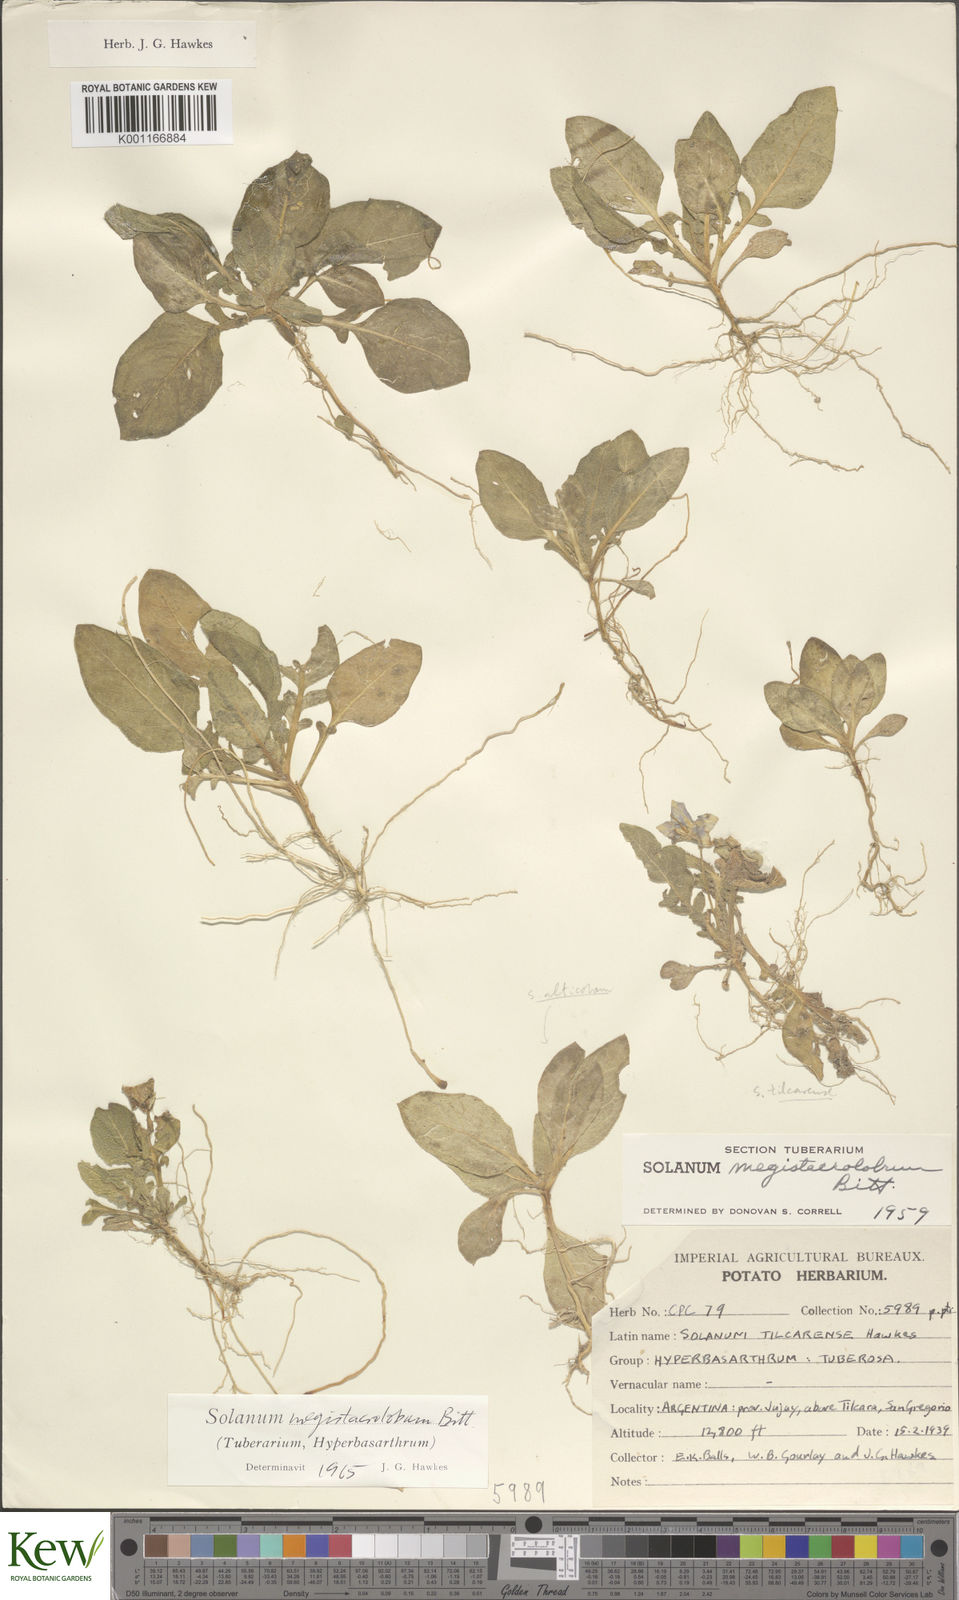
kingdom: Plantae
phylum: Tracheophyta
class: Magnoliopsida
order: Solanales
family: Solanaceae
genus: Solanum
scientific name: Solanum boliviense
